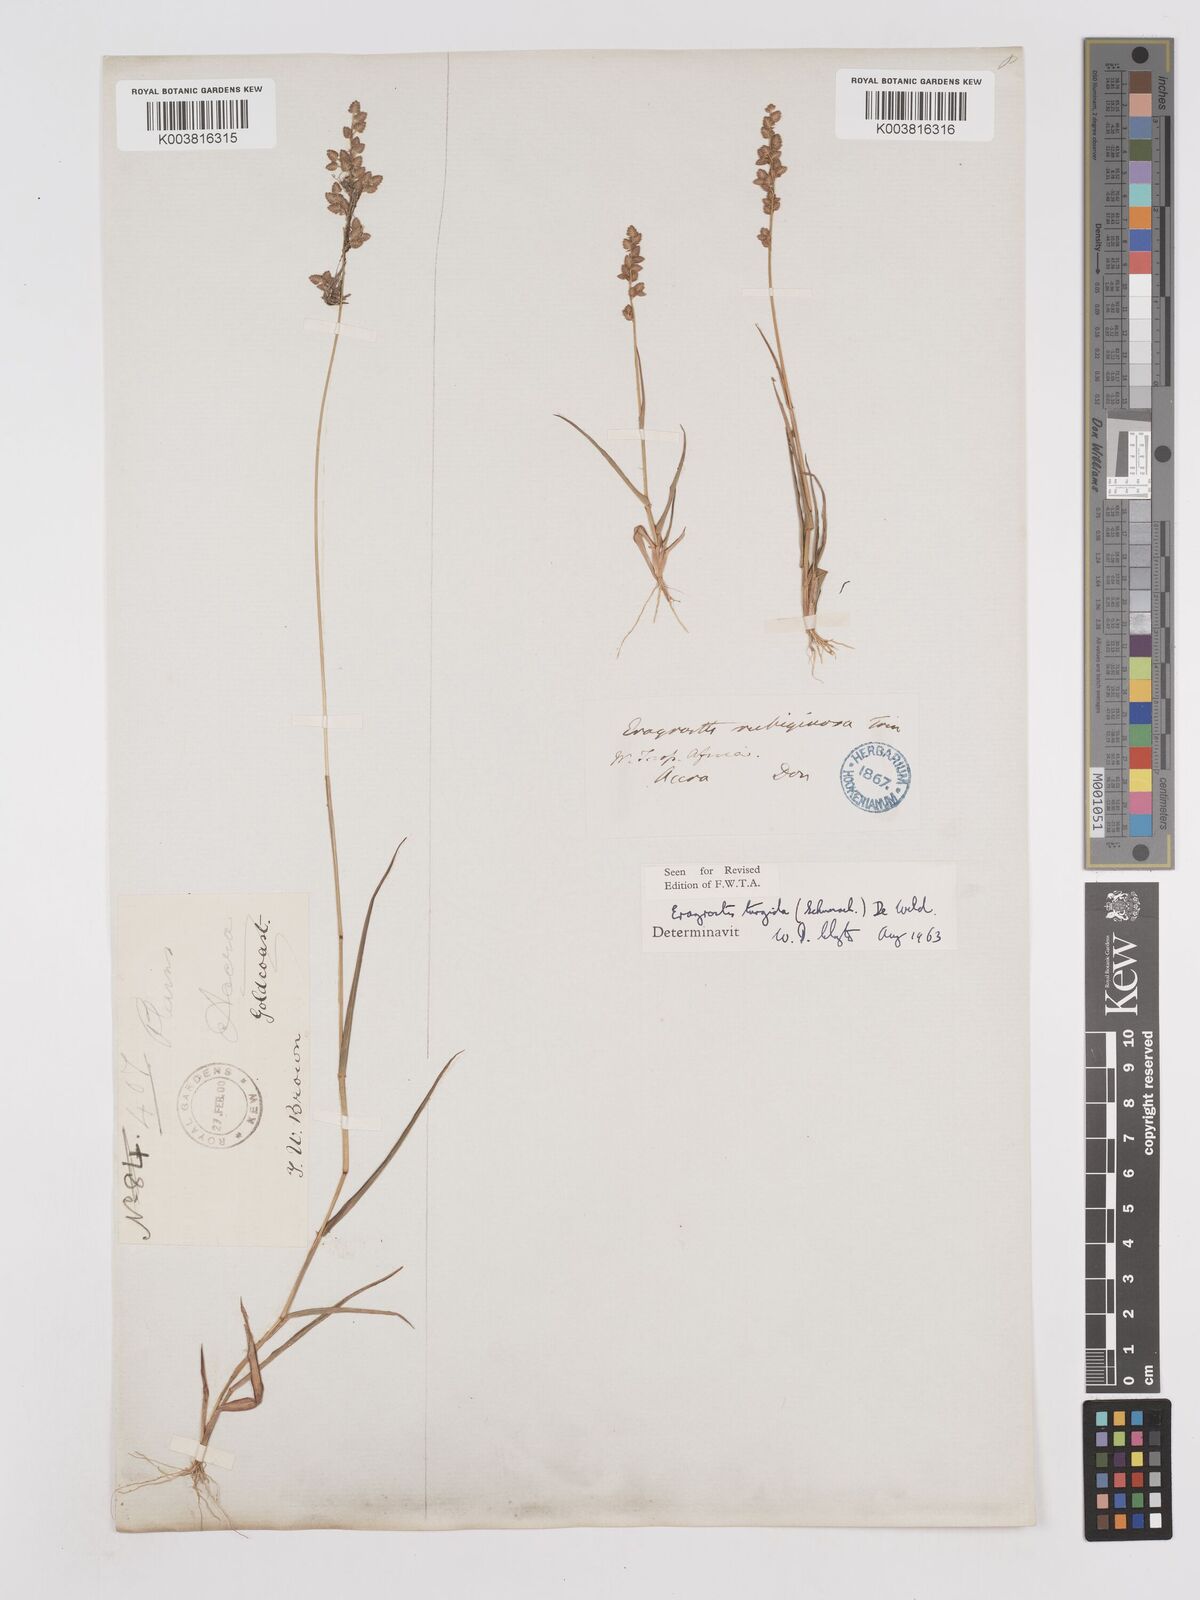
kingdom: Plantae
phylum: Tracheophyta
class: Liliopsida
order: Poales
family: Poaceae
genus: Eragrostis
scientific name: Eragrostis turgida
